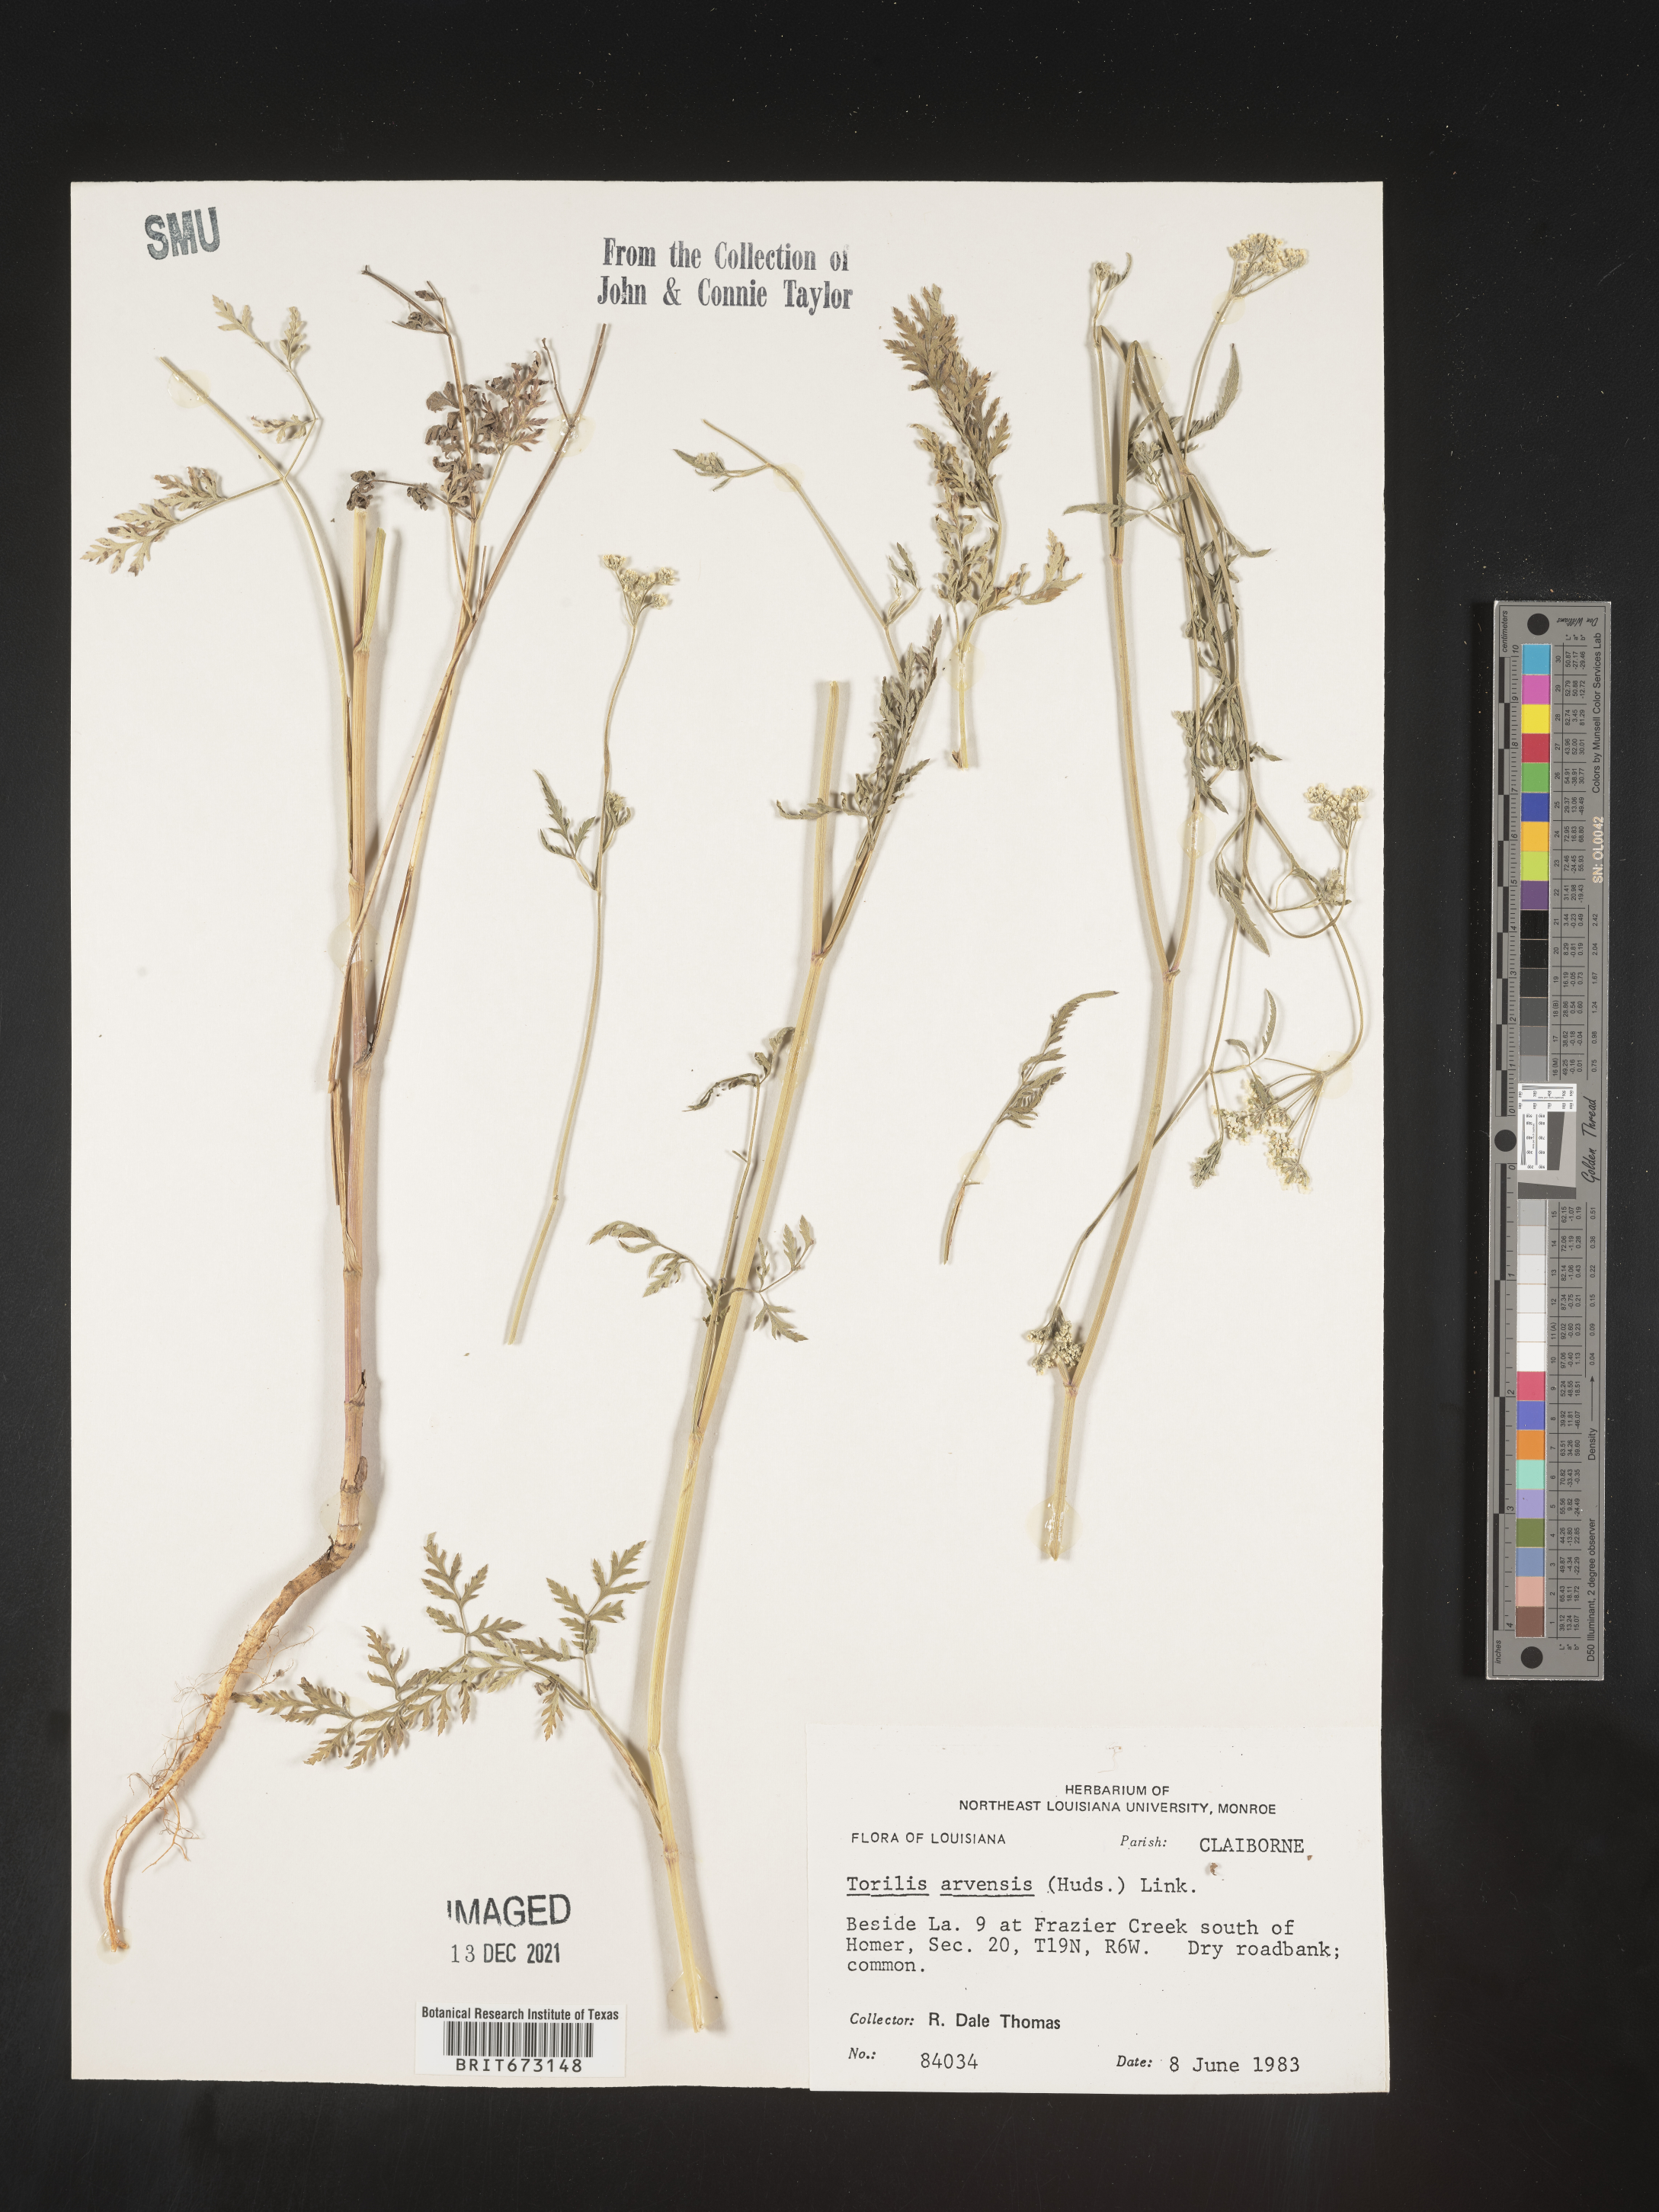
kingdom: Plantae
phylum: Tracheophyta
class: Magnoliopsida
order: Apiales
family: Apiaceae
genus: Torilis
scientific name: Torilis arvensis
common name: Spreading hedge-parsley
